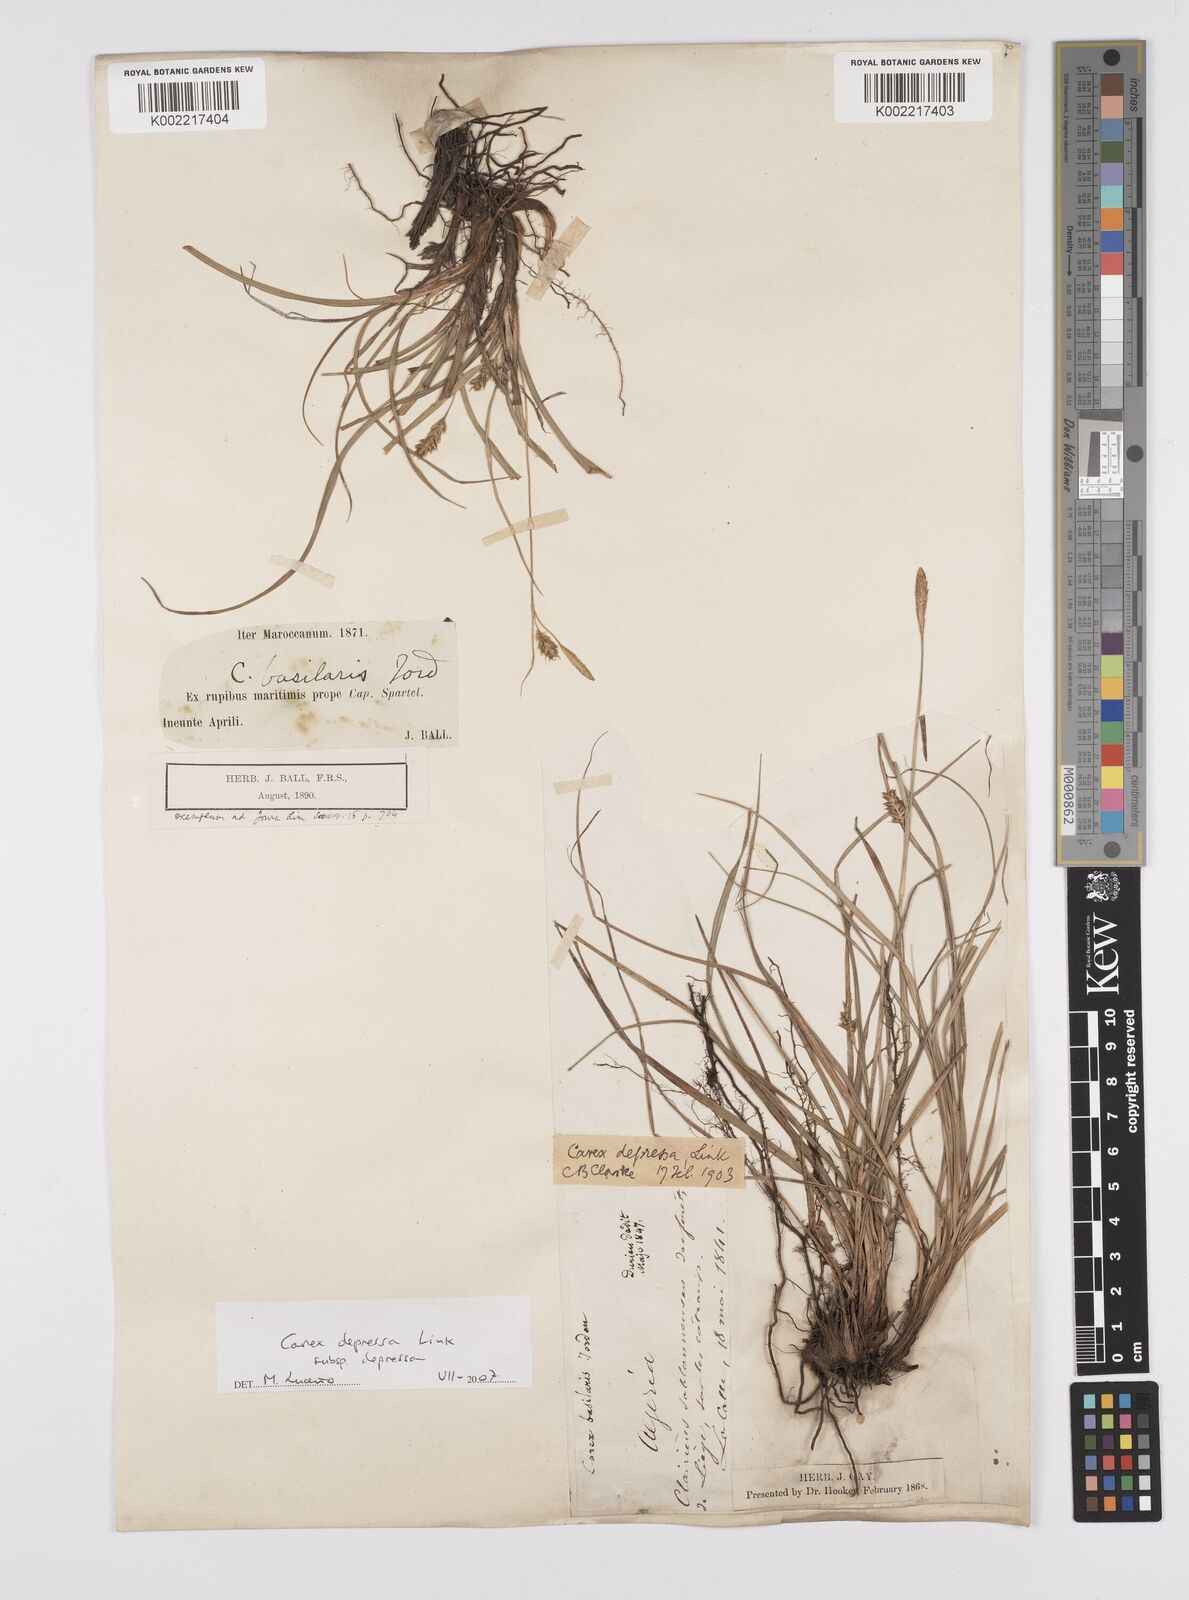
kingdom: Plantae
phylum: Tracheophyta
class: Liliopsida
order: Poales
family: Cyperaceae
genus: Carex
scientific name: Carex depressa
